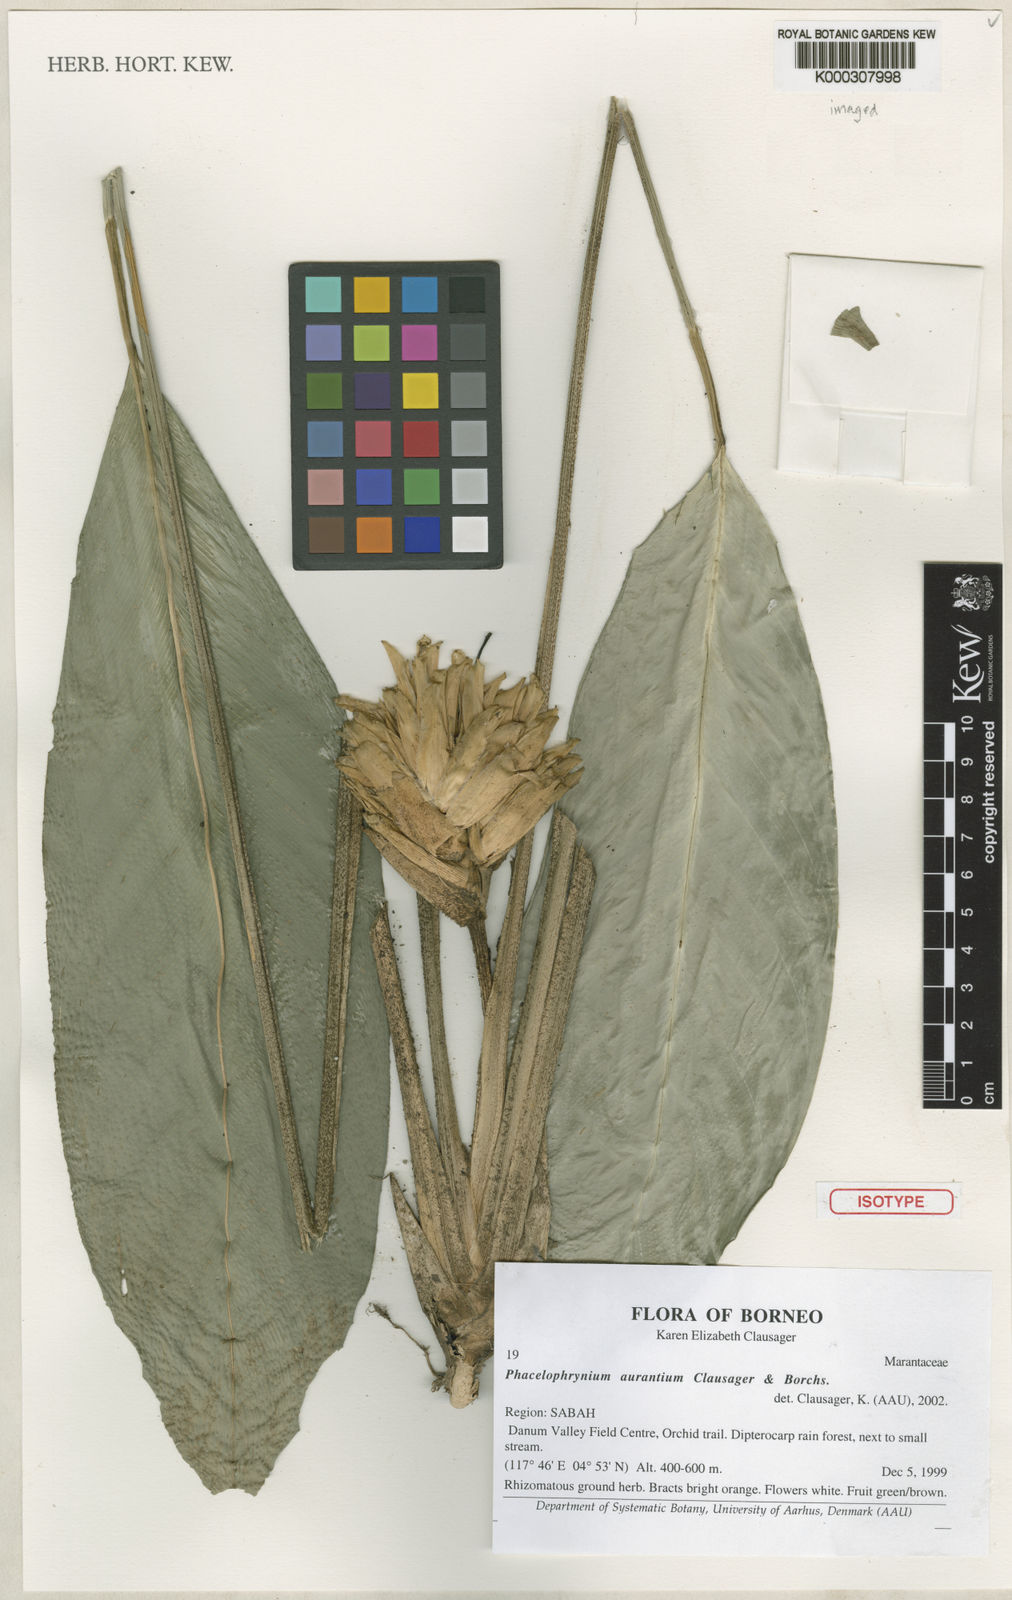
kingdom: Plantae
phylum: Tracheophyta
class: Liliopsida
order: Zingiberales
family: Marantaceae
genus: Phrynium
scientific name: Phrynium aurantium
